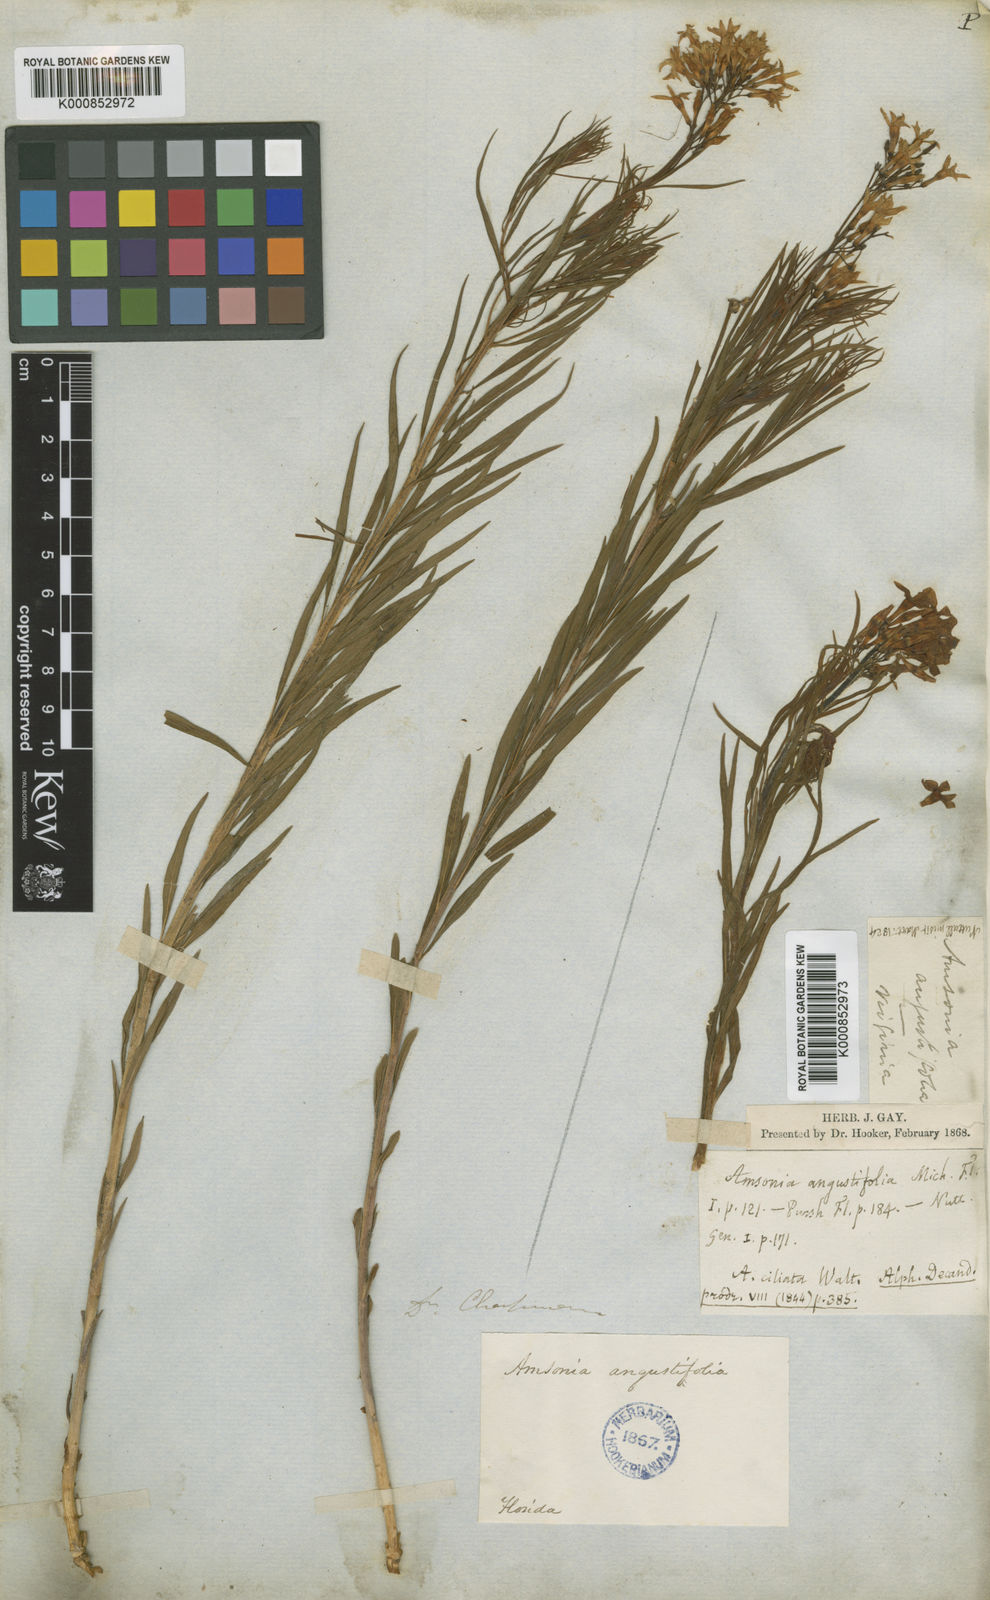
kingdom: Plantae
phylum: Tracheophyta
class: Magnoliopsida
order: Gentianales
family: Apocynaceae
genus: Amsonia
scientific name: Amsonia ciliata
